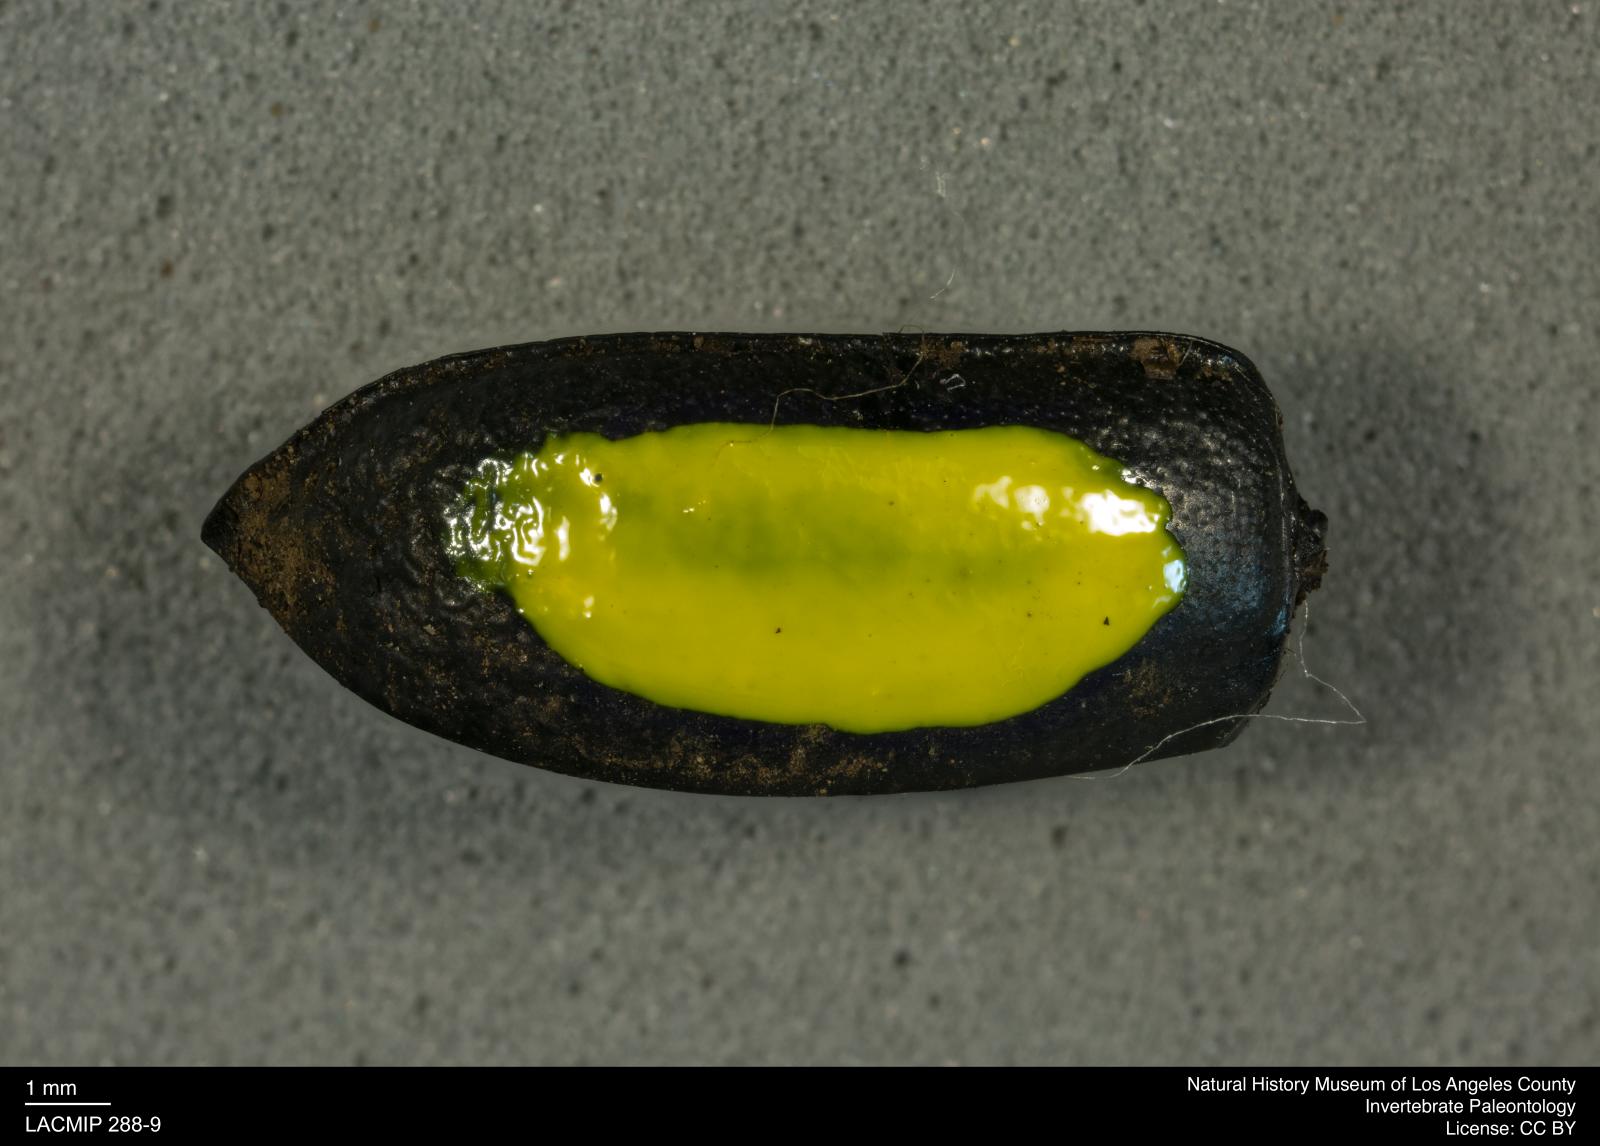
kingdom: Animalia
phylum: Arthropoda
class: Insecta
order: Coleoptera
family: Tenebrionidae
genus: Coniontis
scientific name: Coniontis abdominalis
